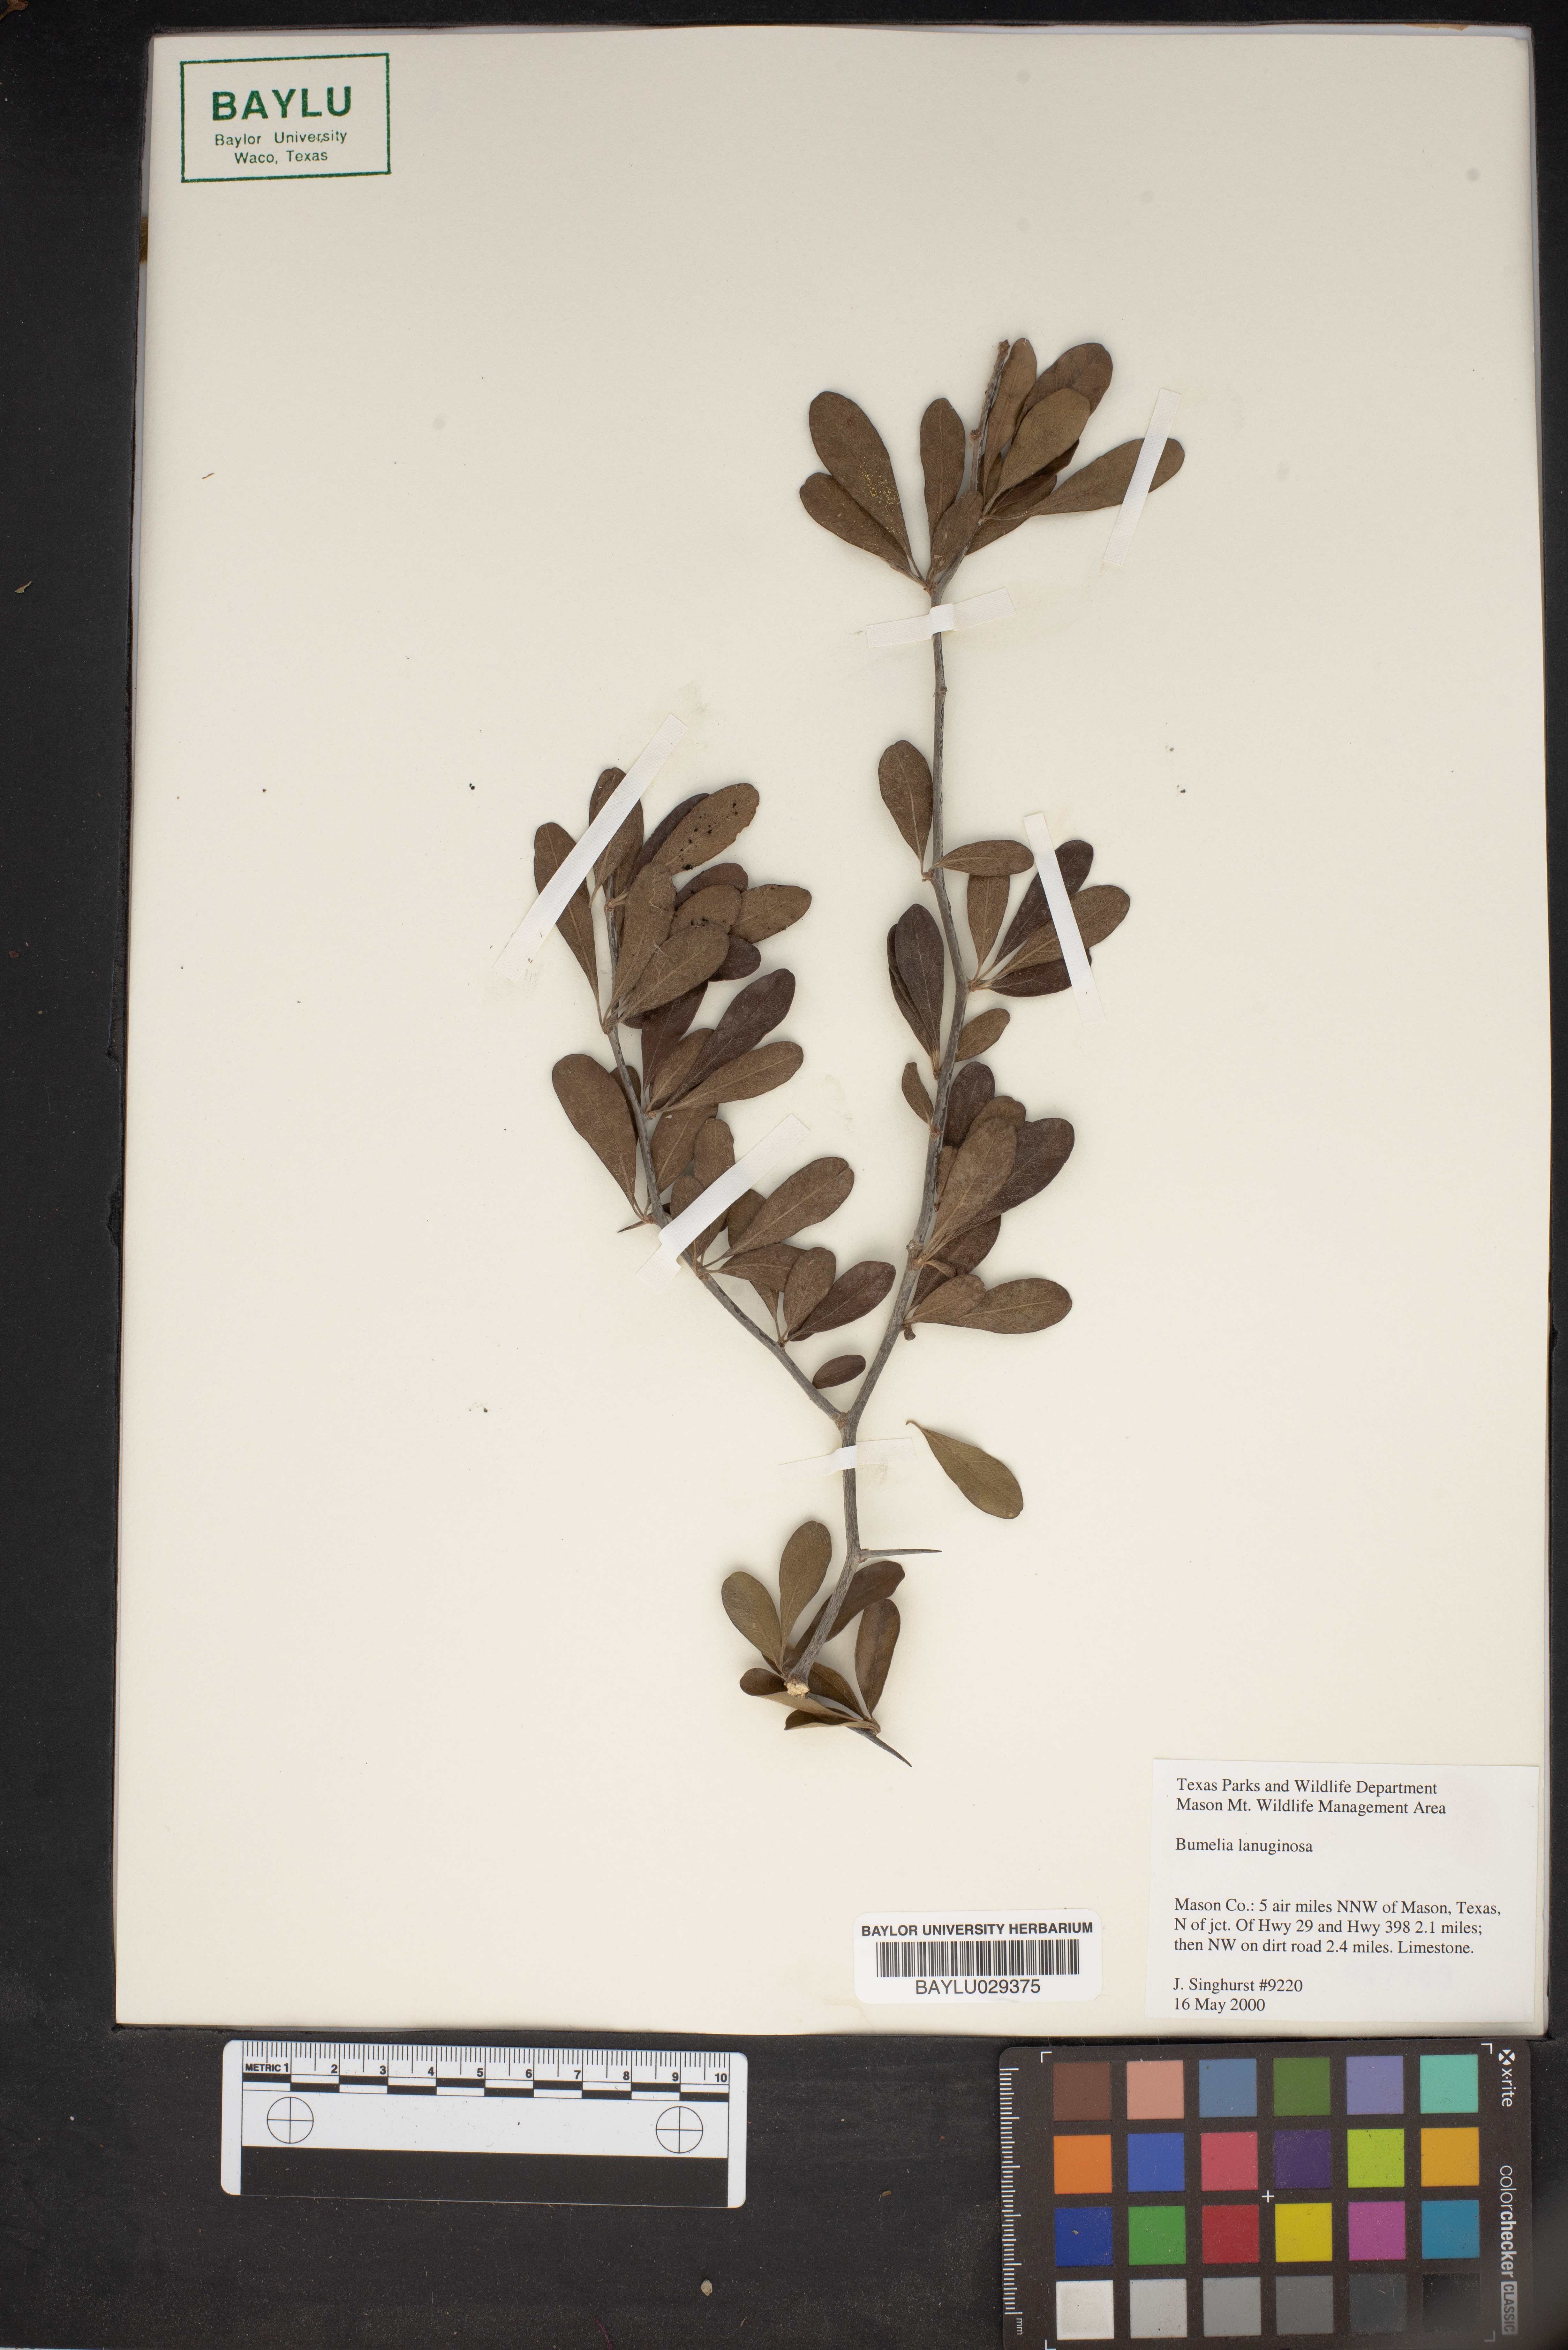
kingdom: Plantae
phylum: Tracheophyta
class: Magnoliopsida
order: Ericales
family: Sapotaceae
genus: Sideroxylon
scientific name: Sideroxylon lanuginosum
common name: Chittamwood
